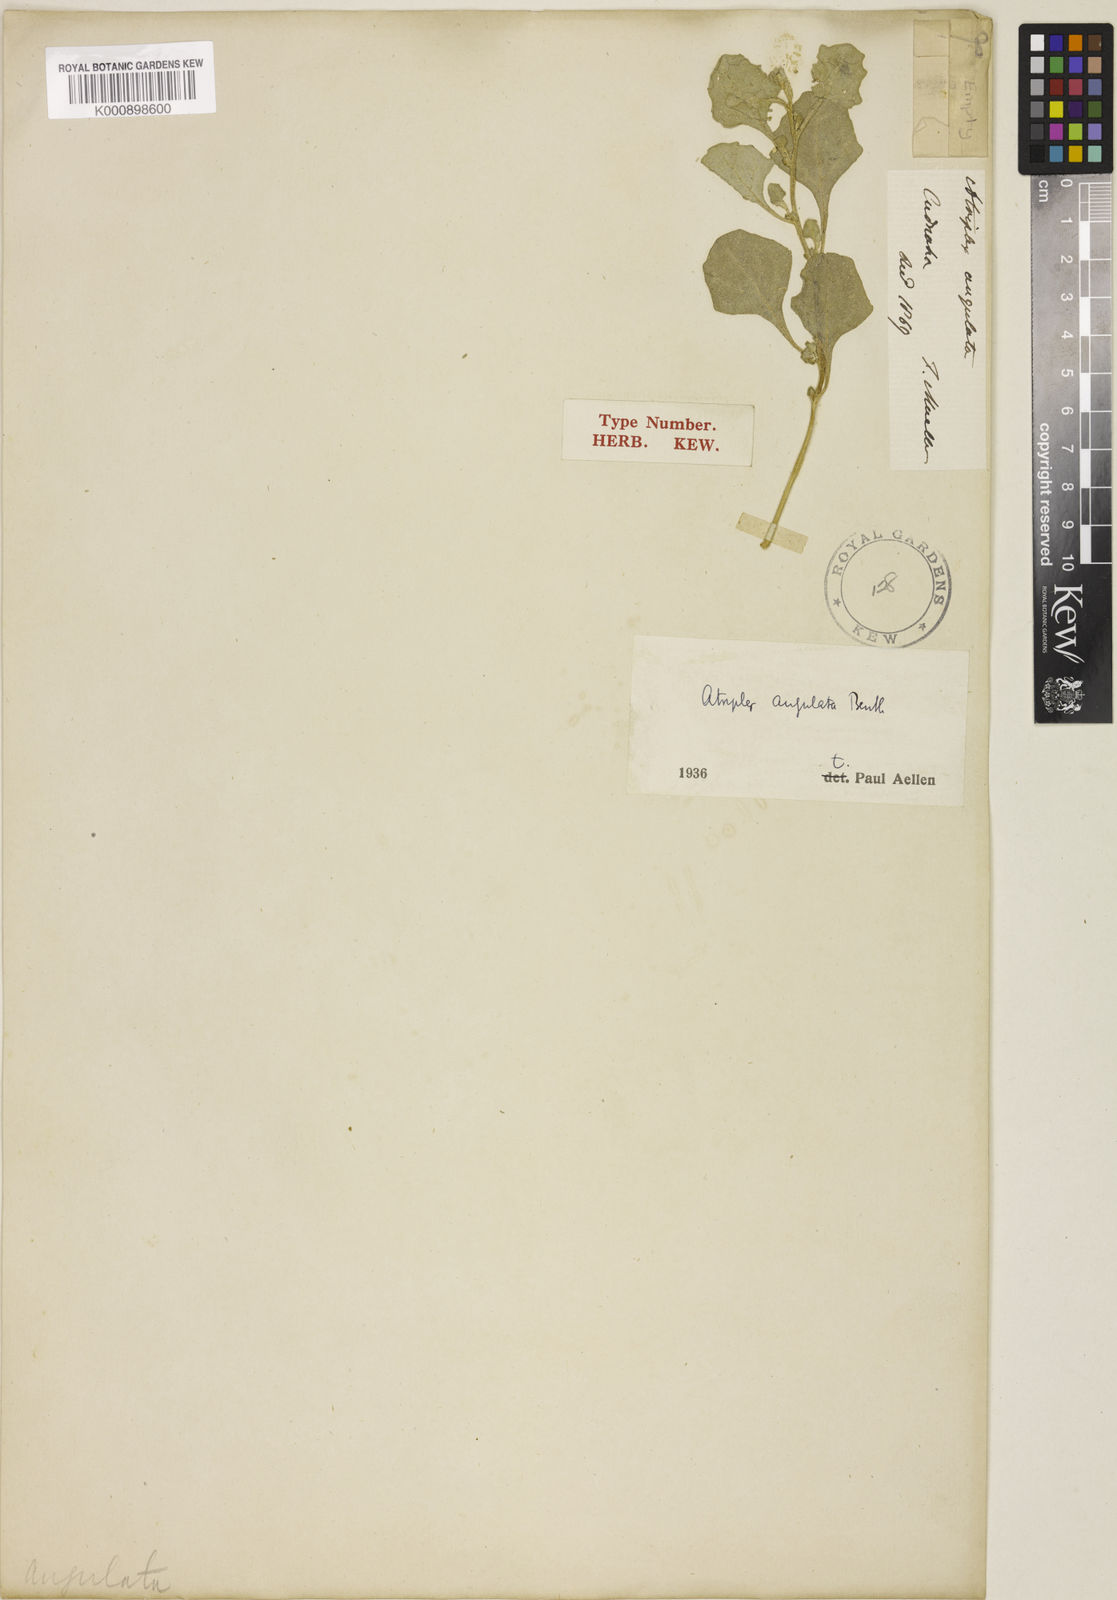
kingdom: Plantae
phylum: Tracheophyta
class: Magnoliopsida
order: Caryophyllales
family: Amaranthaceae
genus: Atriplex
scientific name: Atriplex angulata
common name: Fan saltbush
